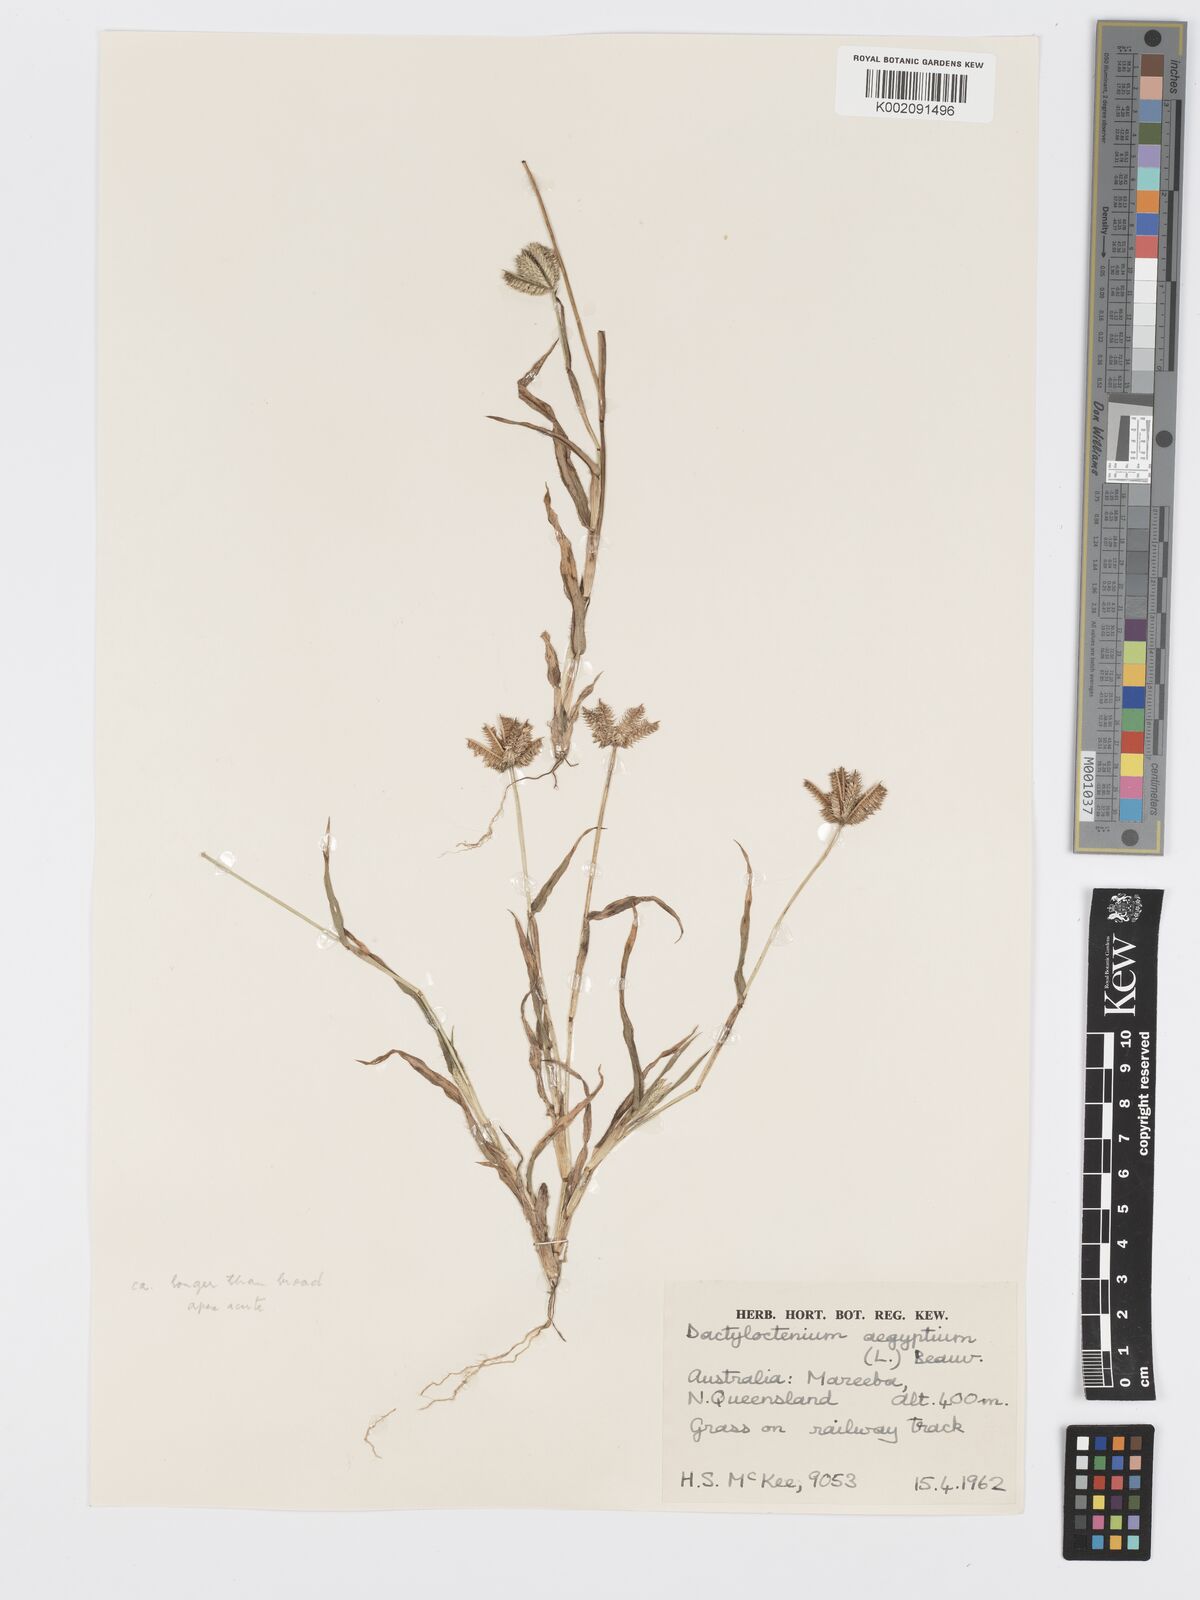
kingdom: Plantae
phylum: Tracheophyta
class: Liliopsida
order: Poales
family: Poaceae
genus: Dactyloctenium
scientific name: Dactyloctenium aegyptium
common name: Egyptian grass
